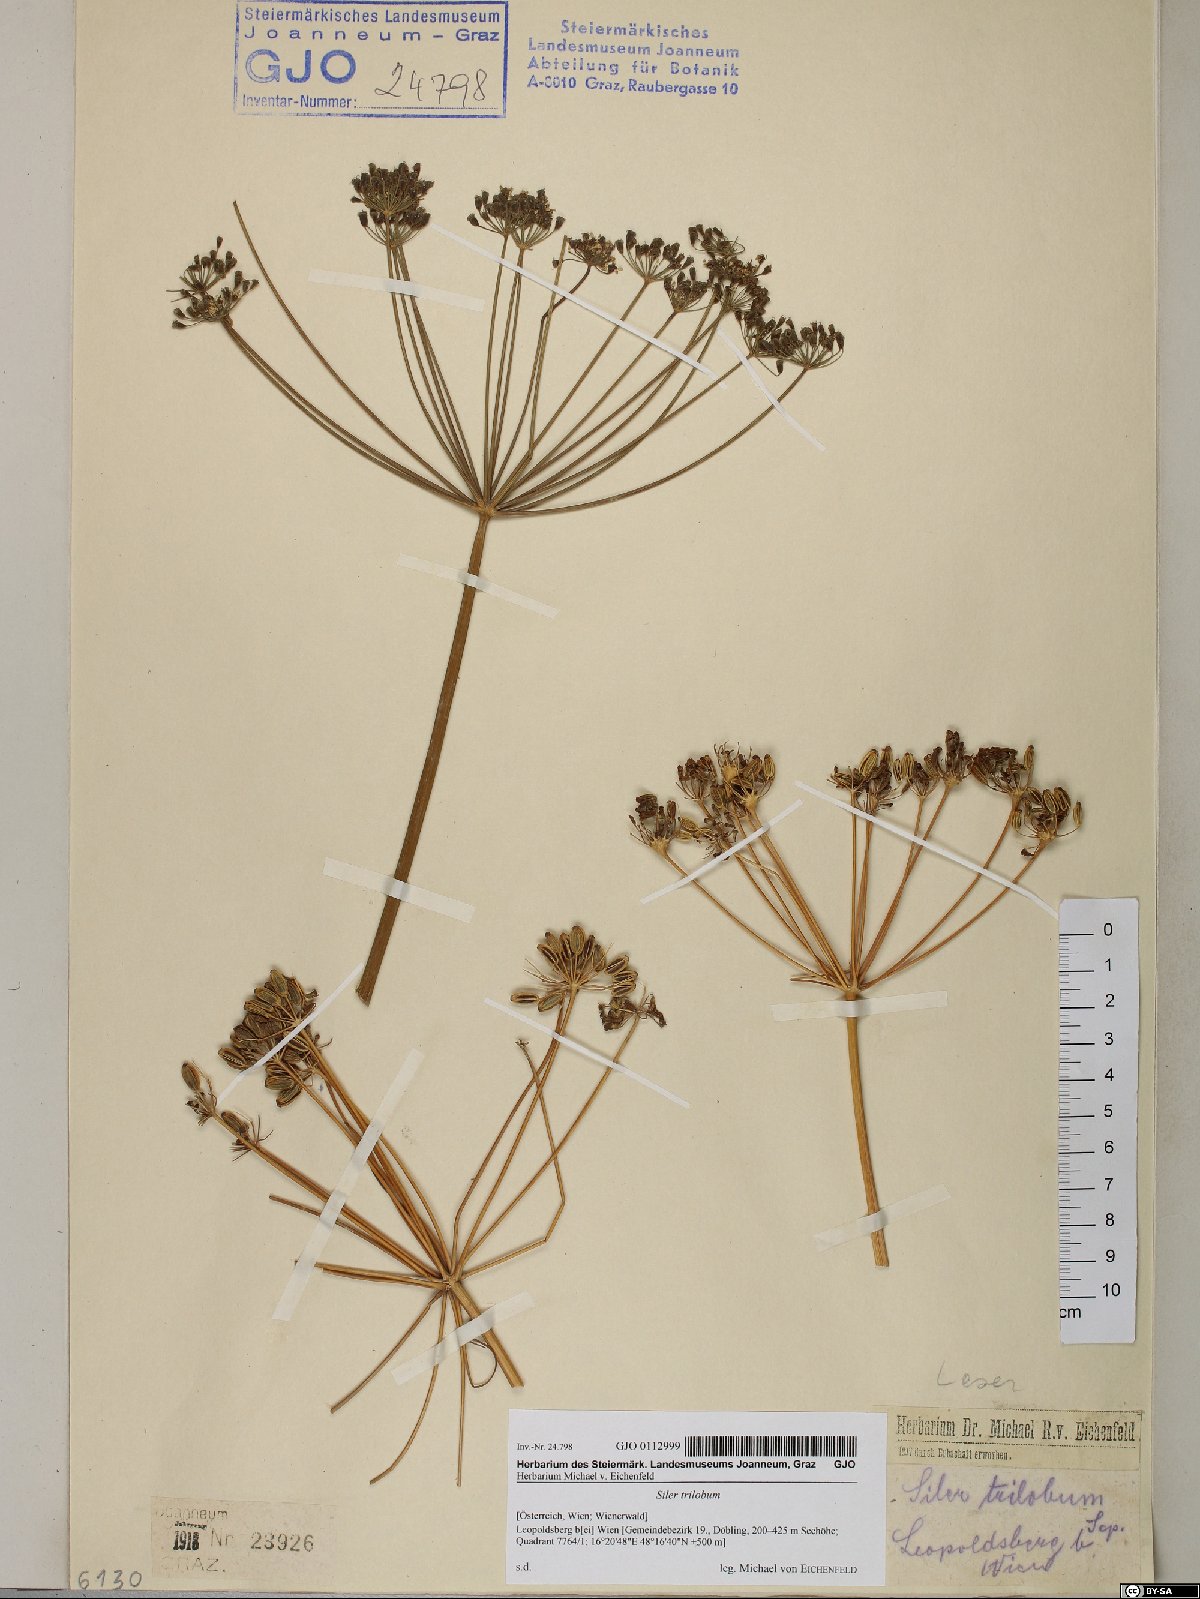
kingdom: Plantae
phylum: Tracheophyta
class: Magnoliopsida
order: Apiales
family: Apiaceae
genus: Laser
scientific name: Laser trilobum
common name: Laser
